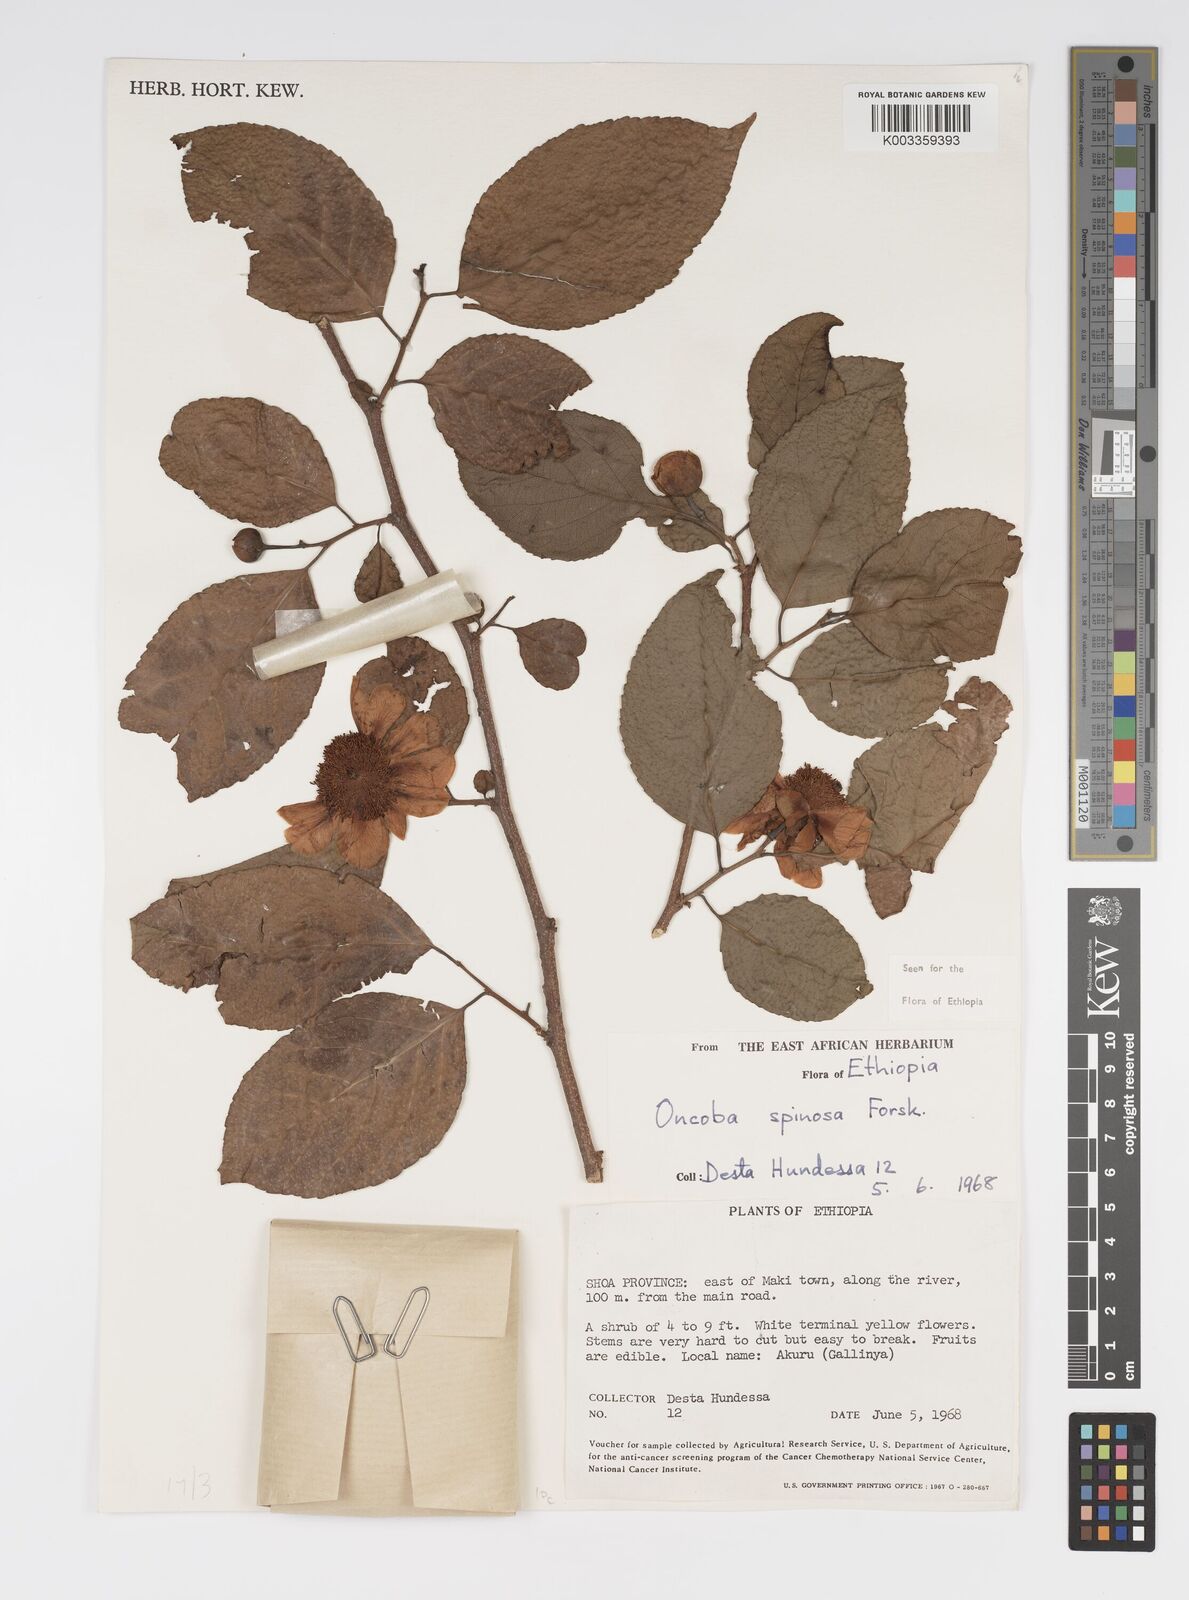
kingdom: Plantae
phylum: Tracheophyta
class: Magnoliopsida
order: Malpighiales
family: Salicaceae
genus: Oncoba
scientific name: Oncoba spinosa
